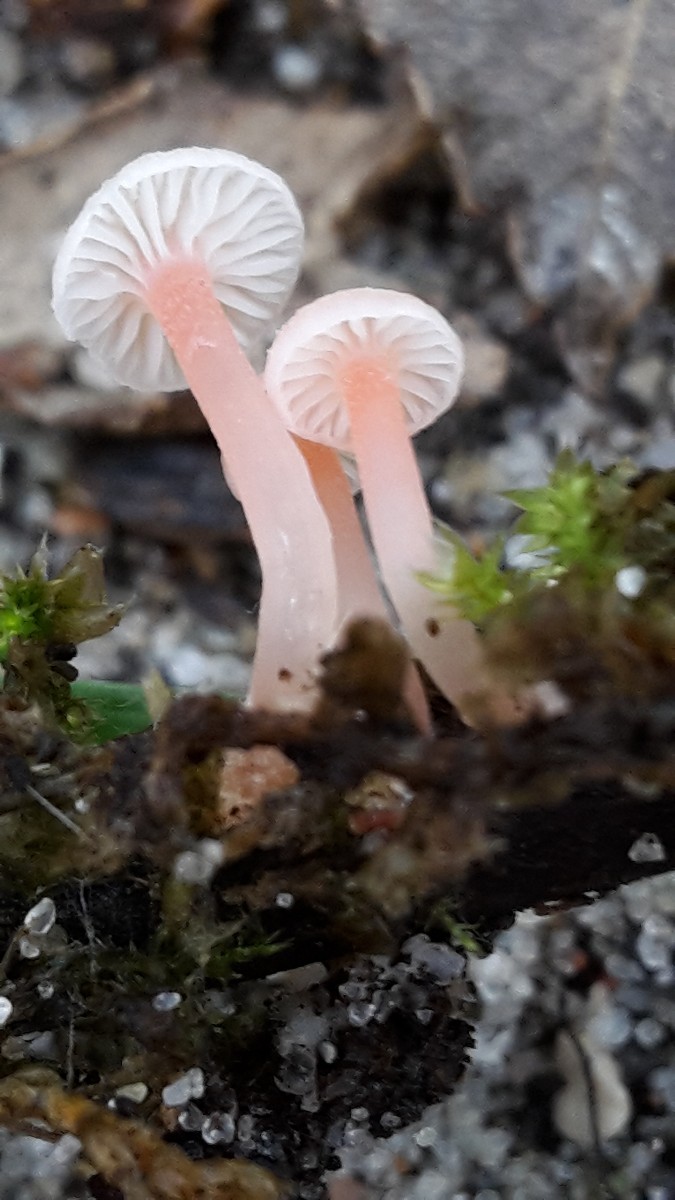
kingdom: Fungi
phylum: Basidiomycota
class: Agaricomycetes
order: Agaricales
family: Mycenaceae
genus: Mycena
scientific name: Mycena coccinea
